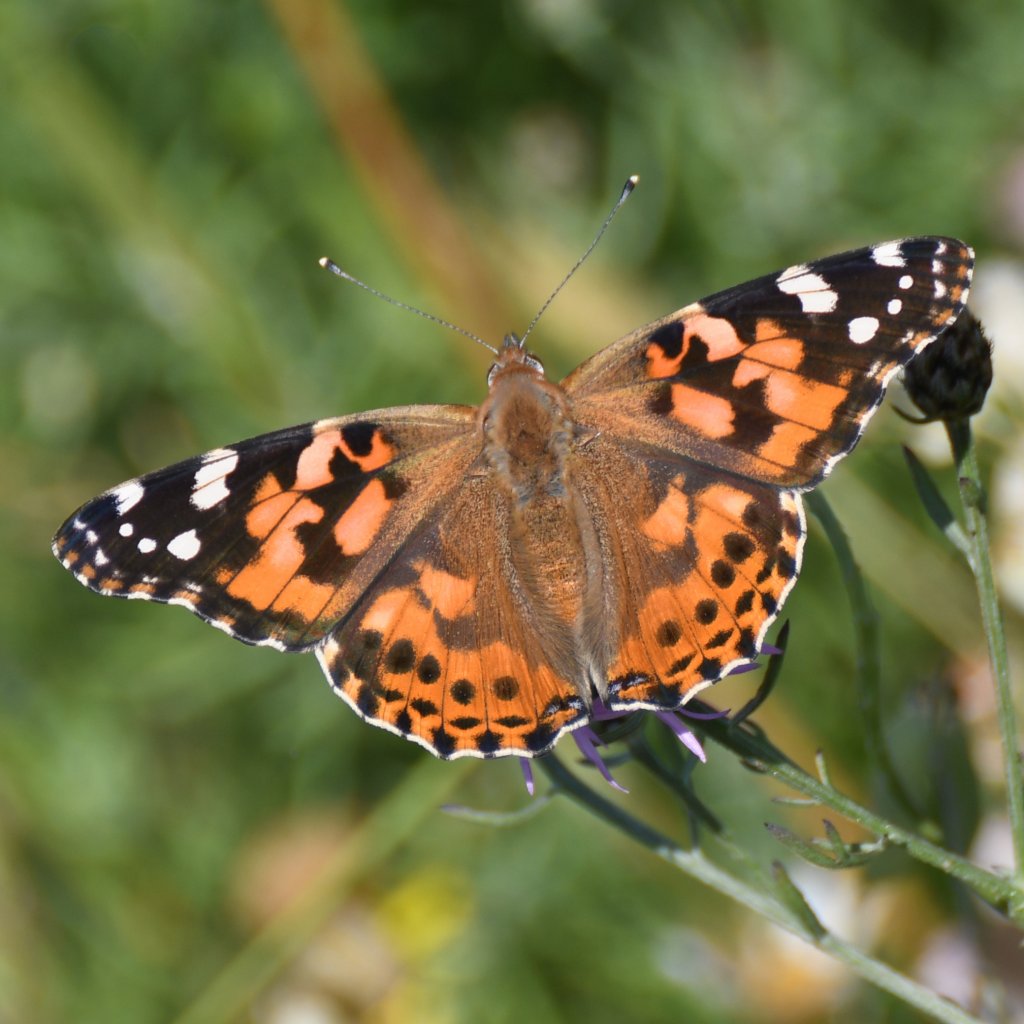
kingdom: Animalia
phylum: Arthropoda
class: Insecta
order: Lepidoptera
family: Nymphalidae
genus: Vanessa
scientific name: Vanessa cardui
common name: Painted Lady
